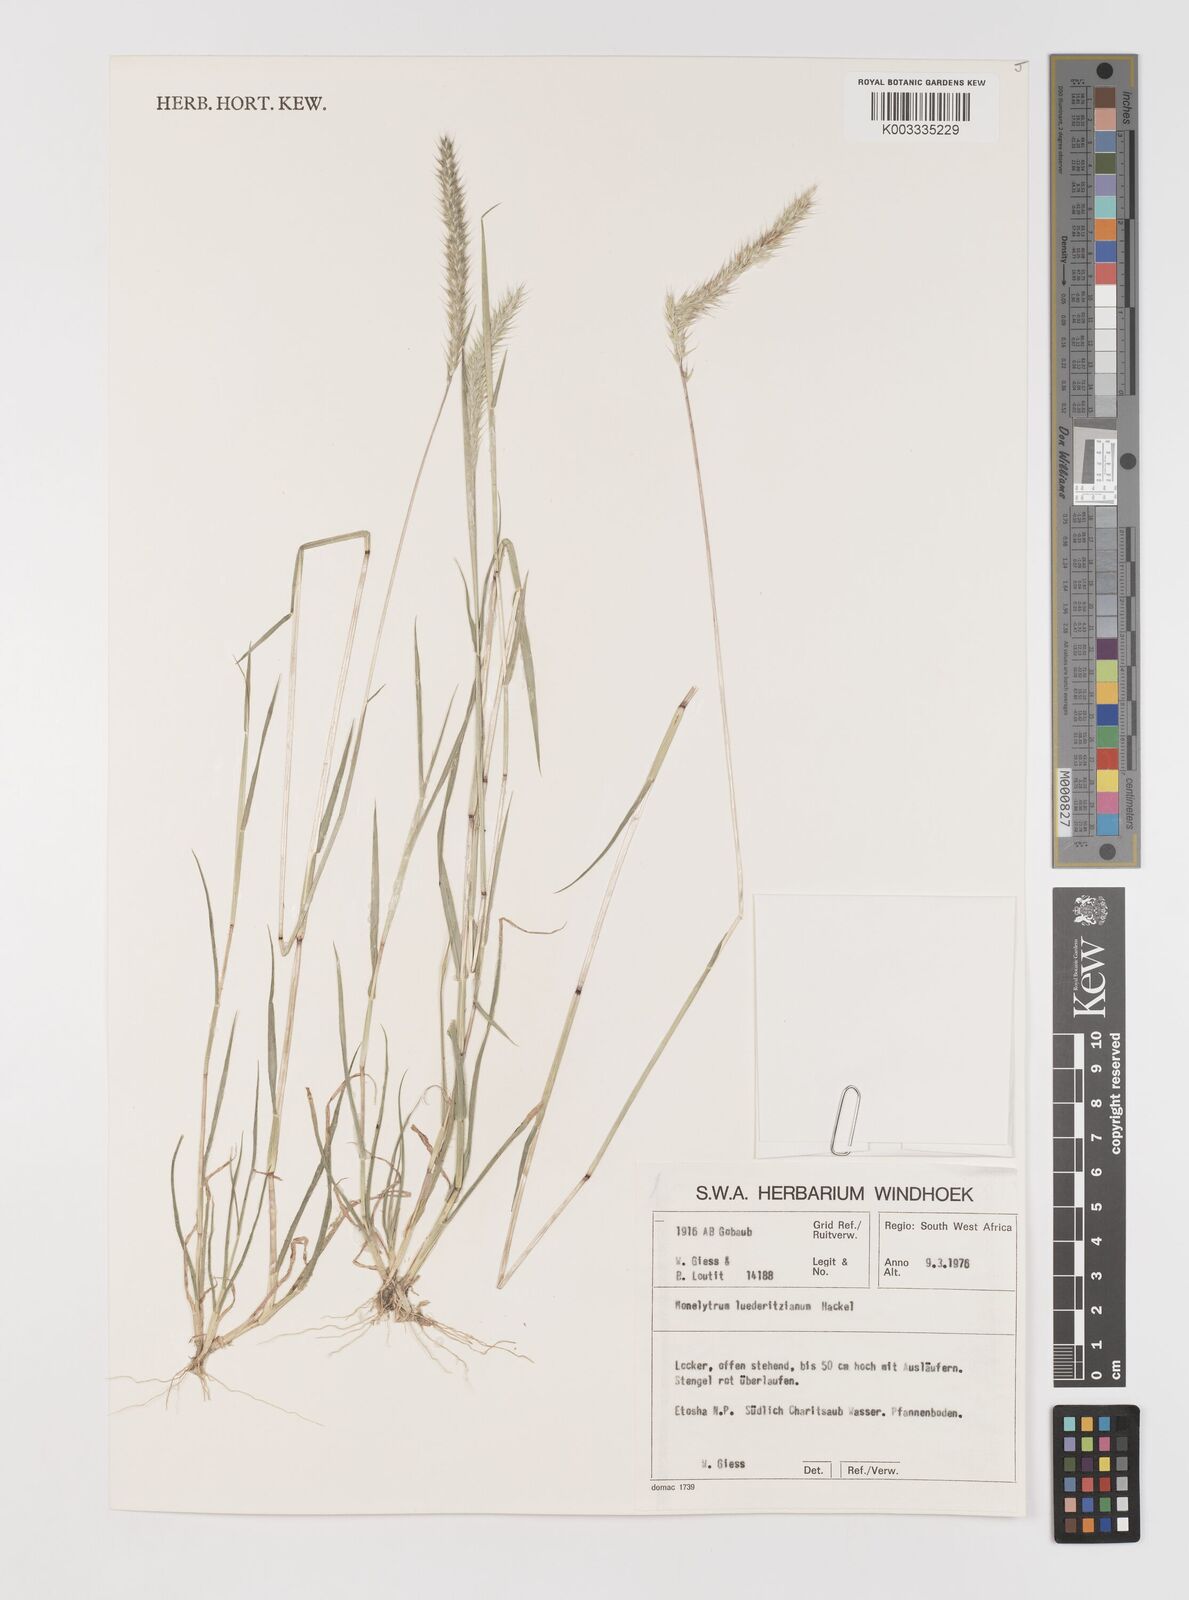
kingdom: Plantae
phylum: Tracheophyta
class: Liliopsida
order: Poales
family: Poaceae
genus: Monelytrum
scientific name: Monelytrum luederitzianum
